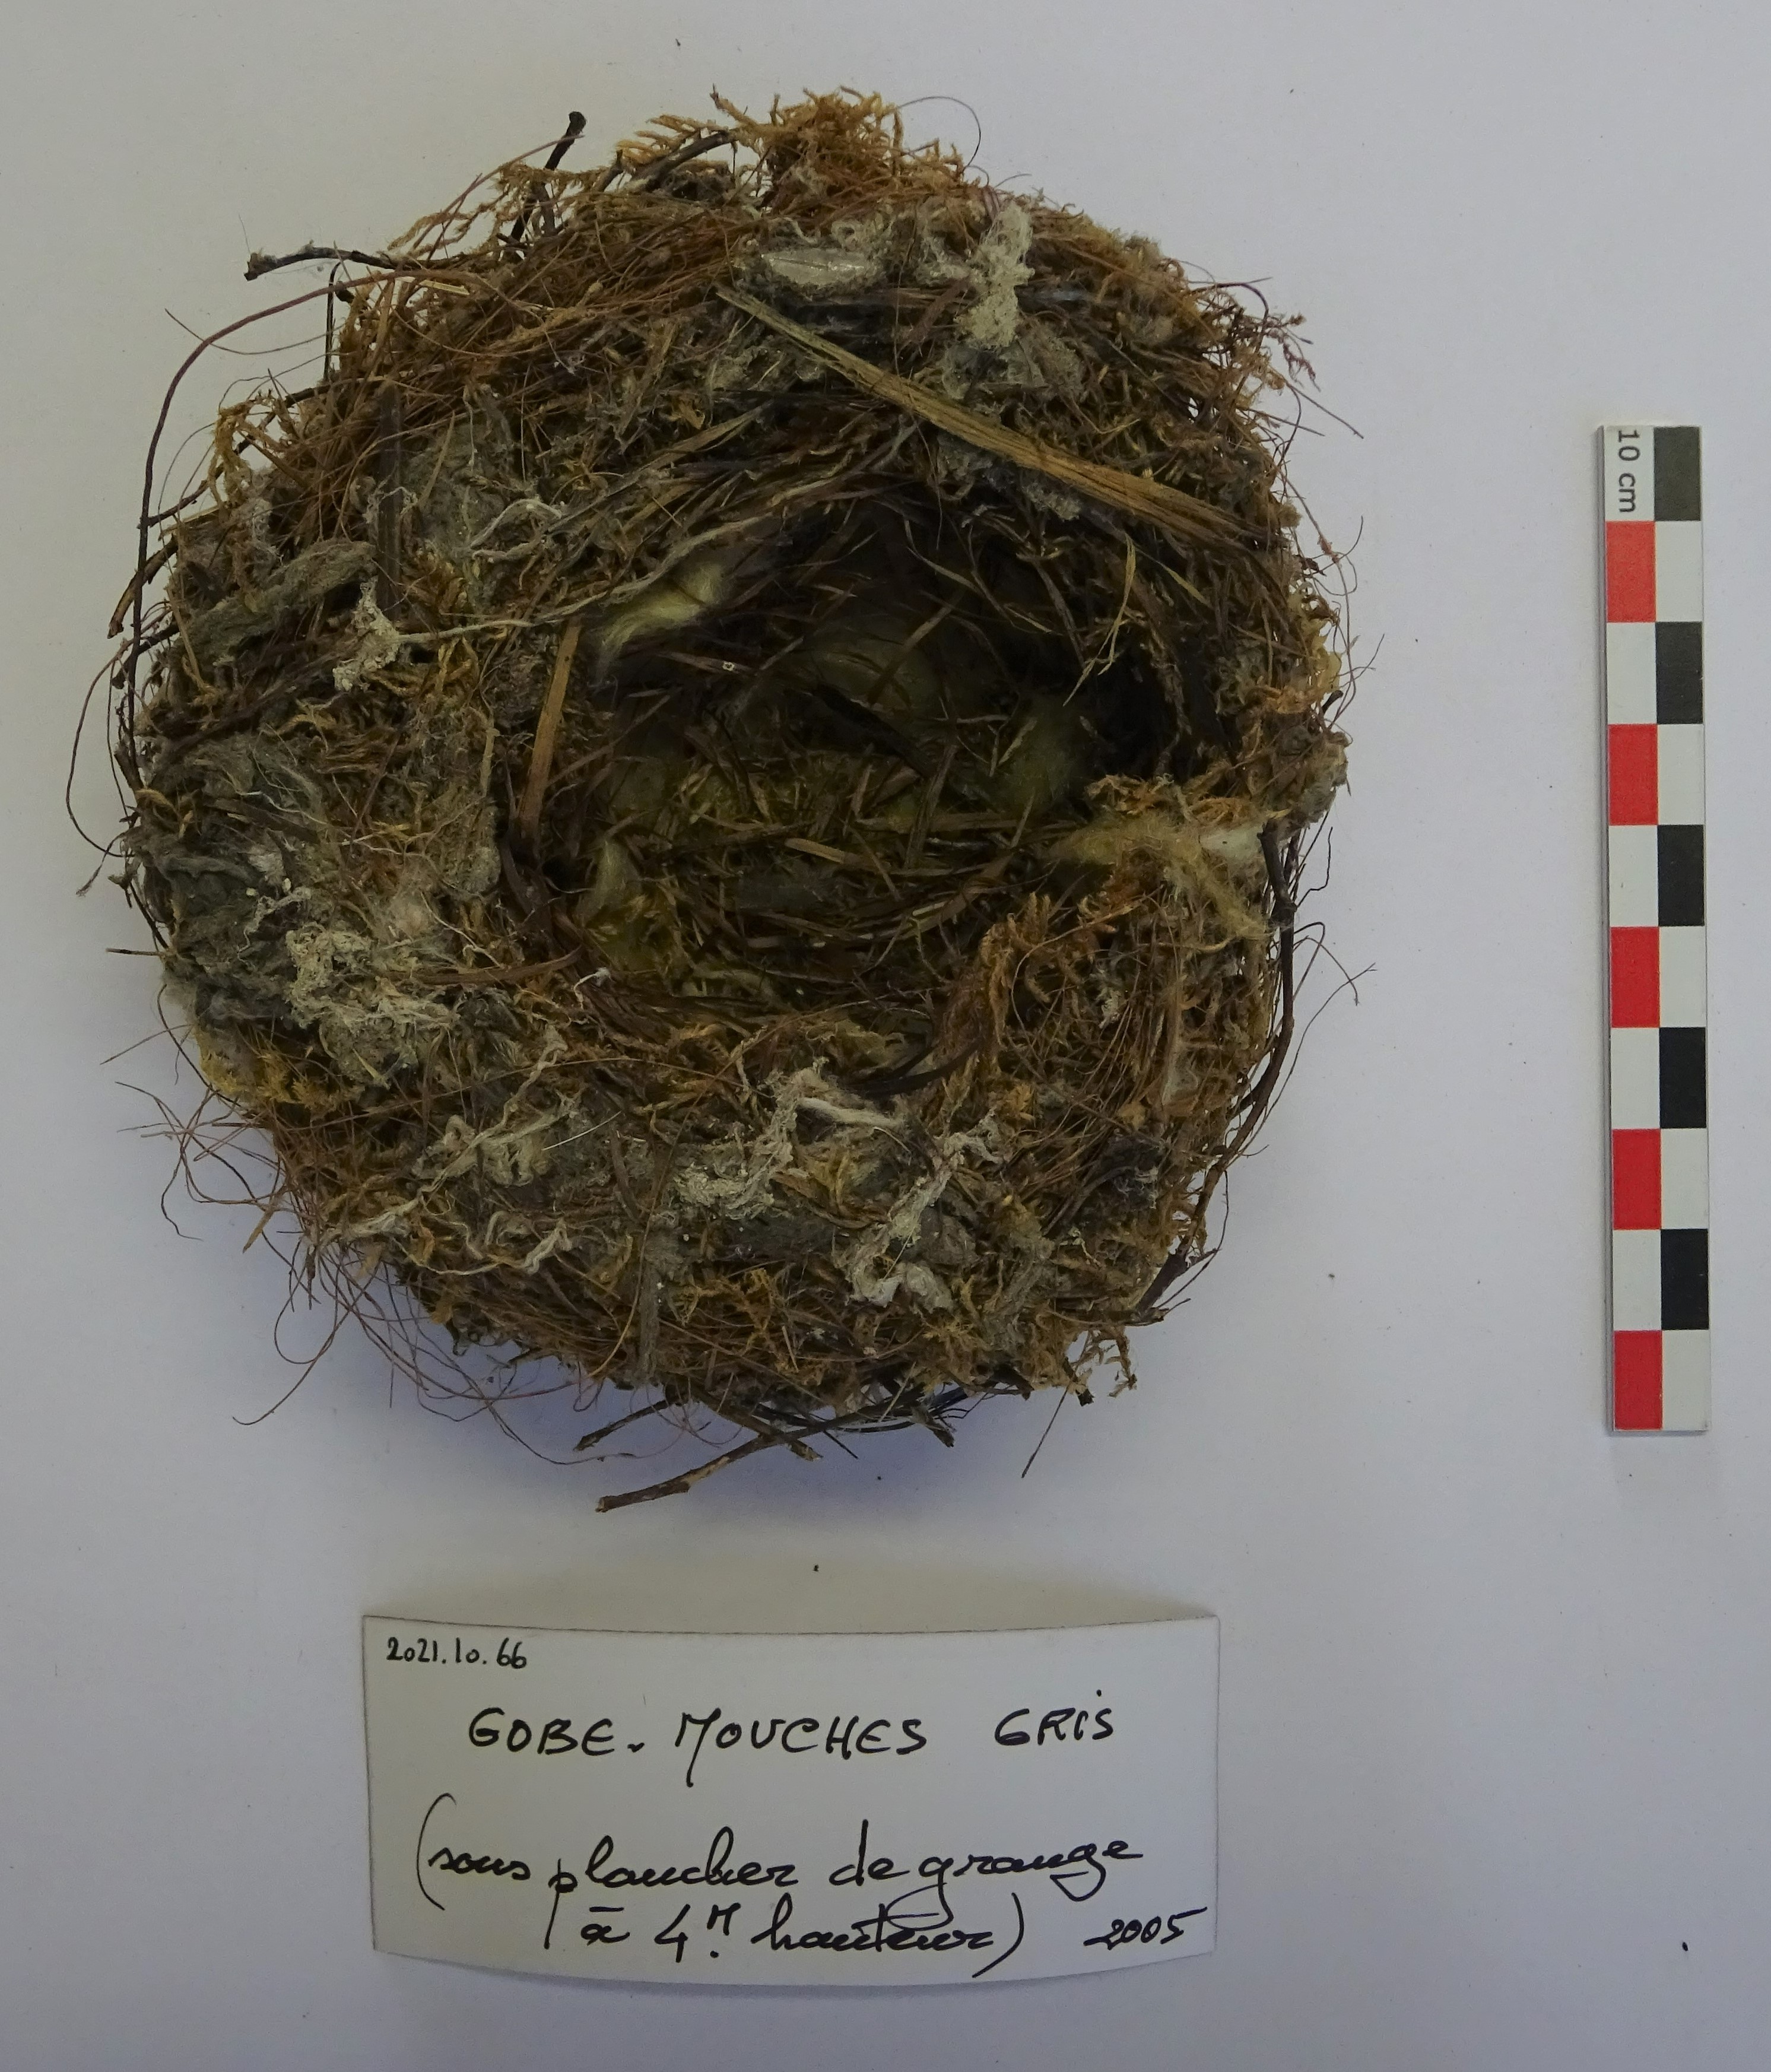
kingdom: Animalia
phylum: Chordata
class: Aves
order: Passeriformes
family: Muscicapidae
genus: Muscicapa
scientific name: Muscicapa striata
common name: Spotted flycatcher
